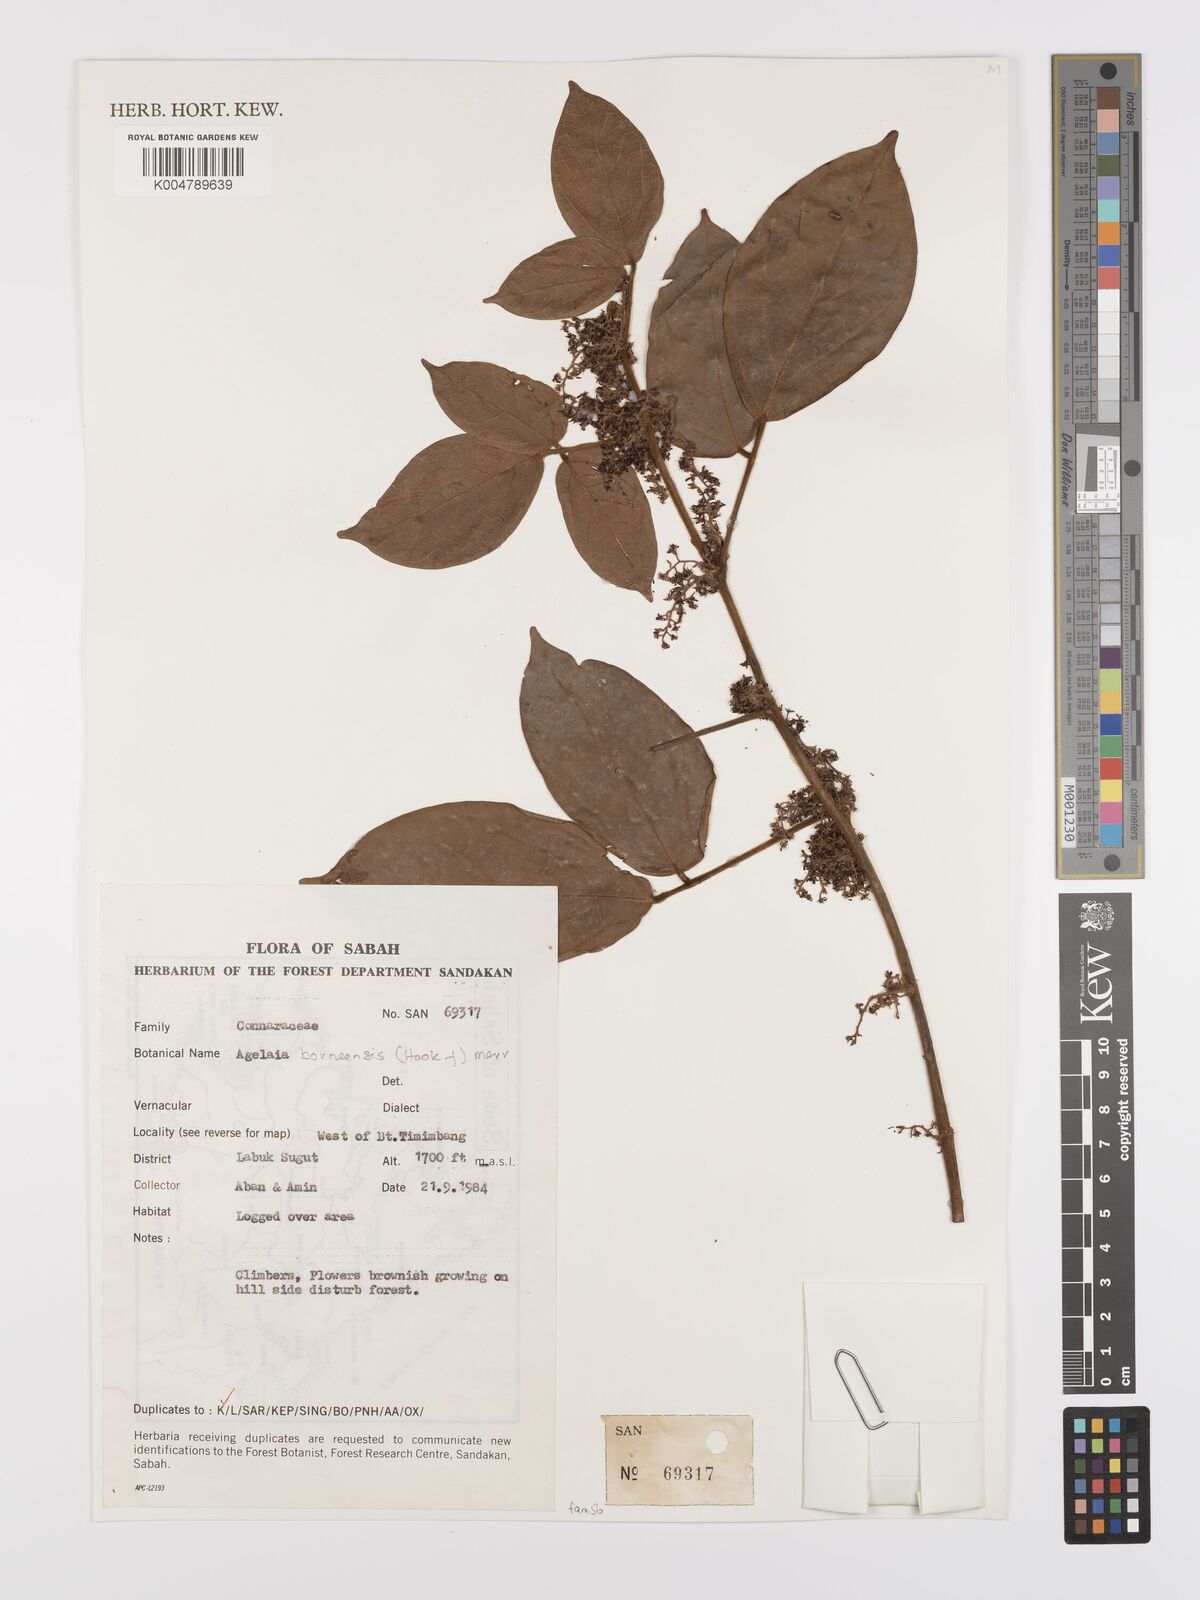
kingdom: Plantae
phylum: Tracheophyta
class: Magnoliopsida
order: Oxalidales
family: Connaraceae
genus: Agelaea
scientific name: Agelaea borneensis
